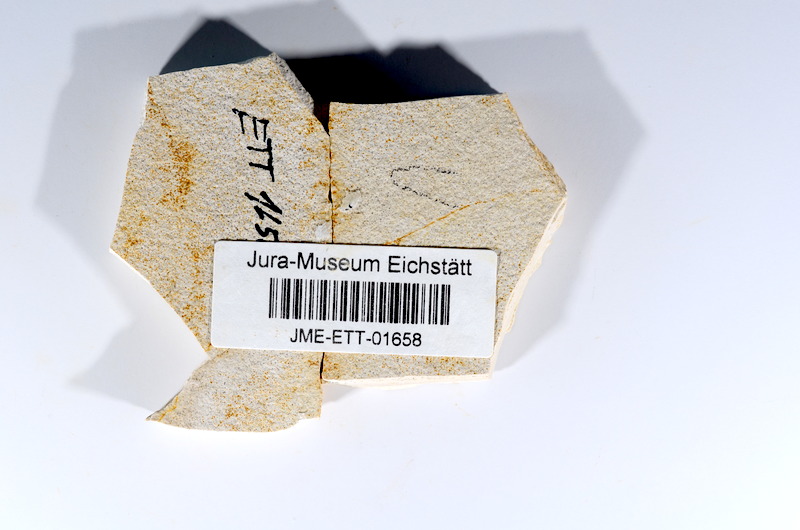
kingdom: Animalia
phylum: Chordata
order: Salmoniformes
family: Orthogonikleithridae
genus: Orthogonikleithrus
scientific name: Orthogonikleithrus hoelli
